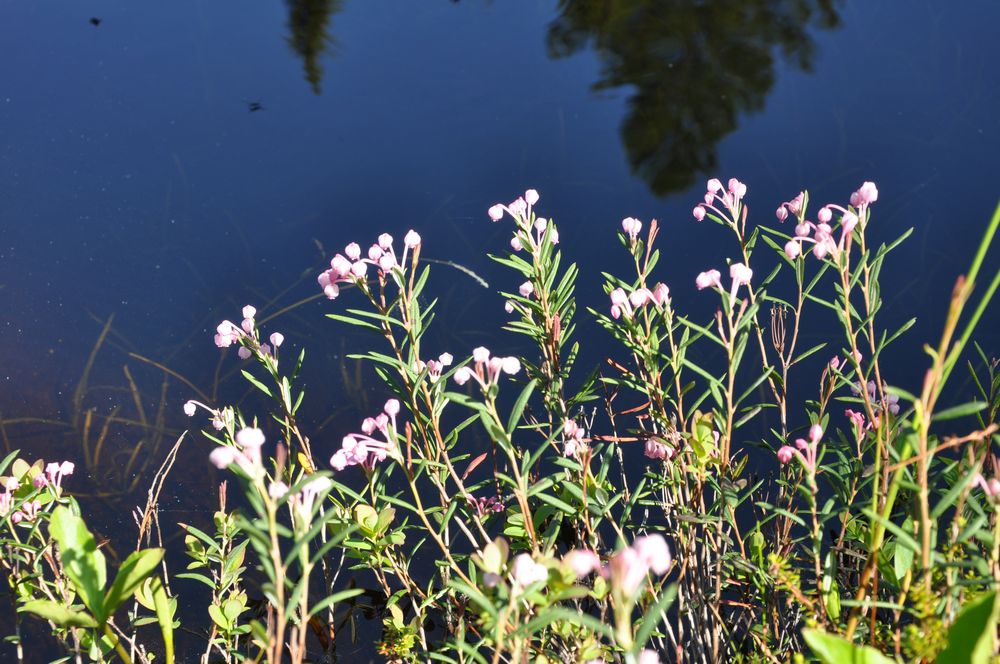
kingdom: Plantae
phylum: Tracheophyta
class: Magnoliopsida
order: Ericales
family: Ericaceae
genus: Andromeda
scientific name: Andromeda polifolia
